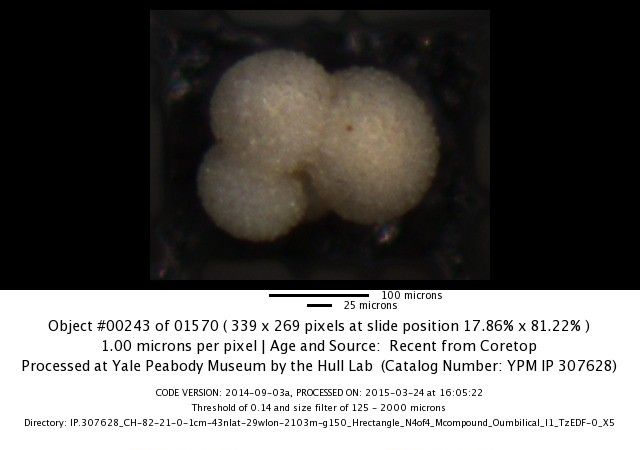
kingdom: Chromista
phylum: Foraminifera
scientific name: Foraminifera
